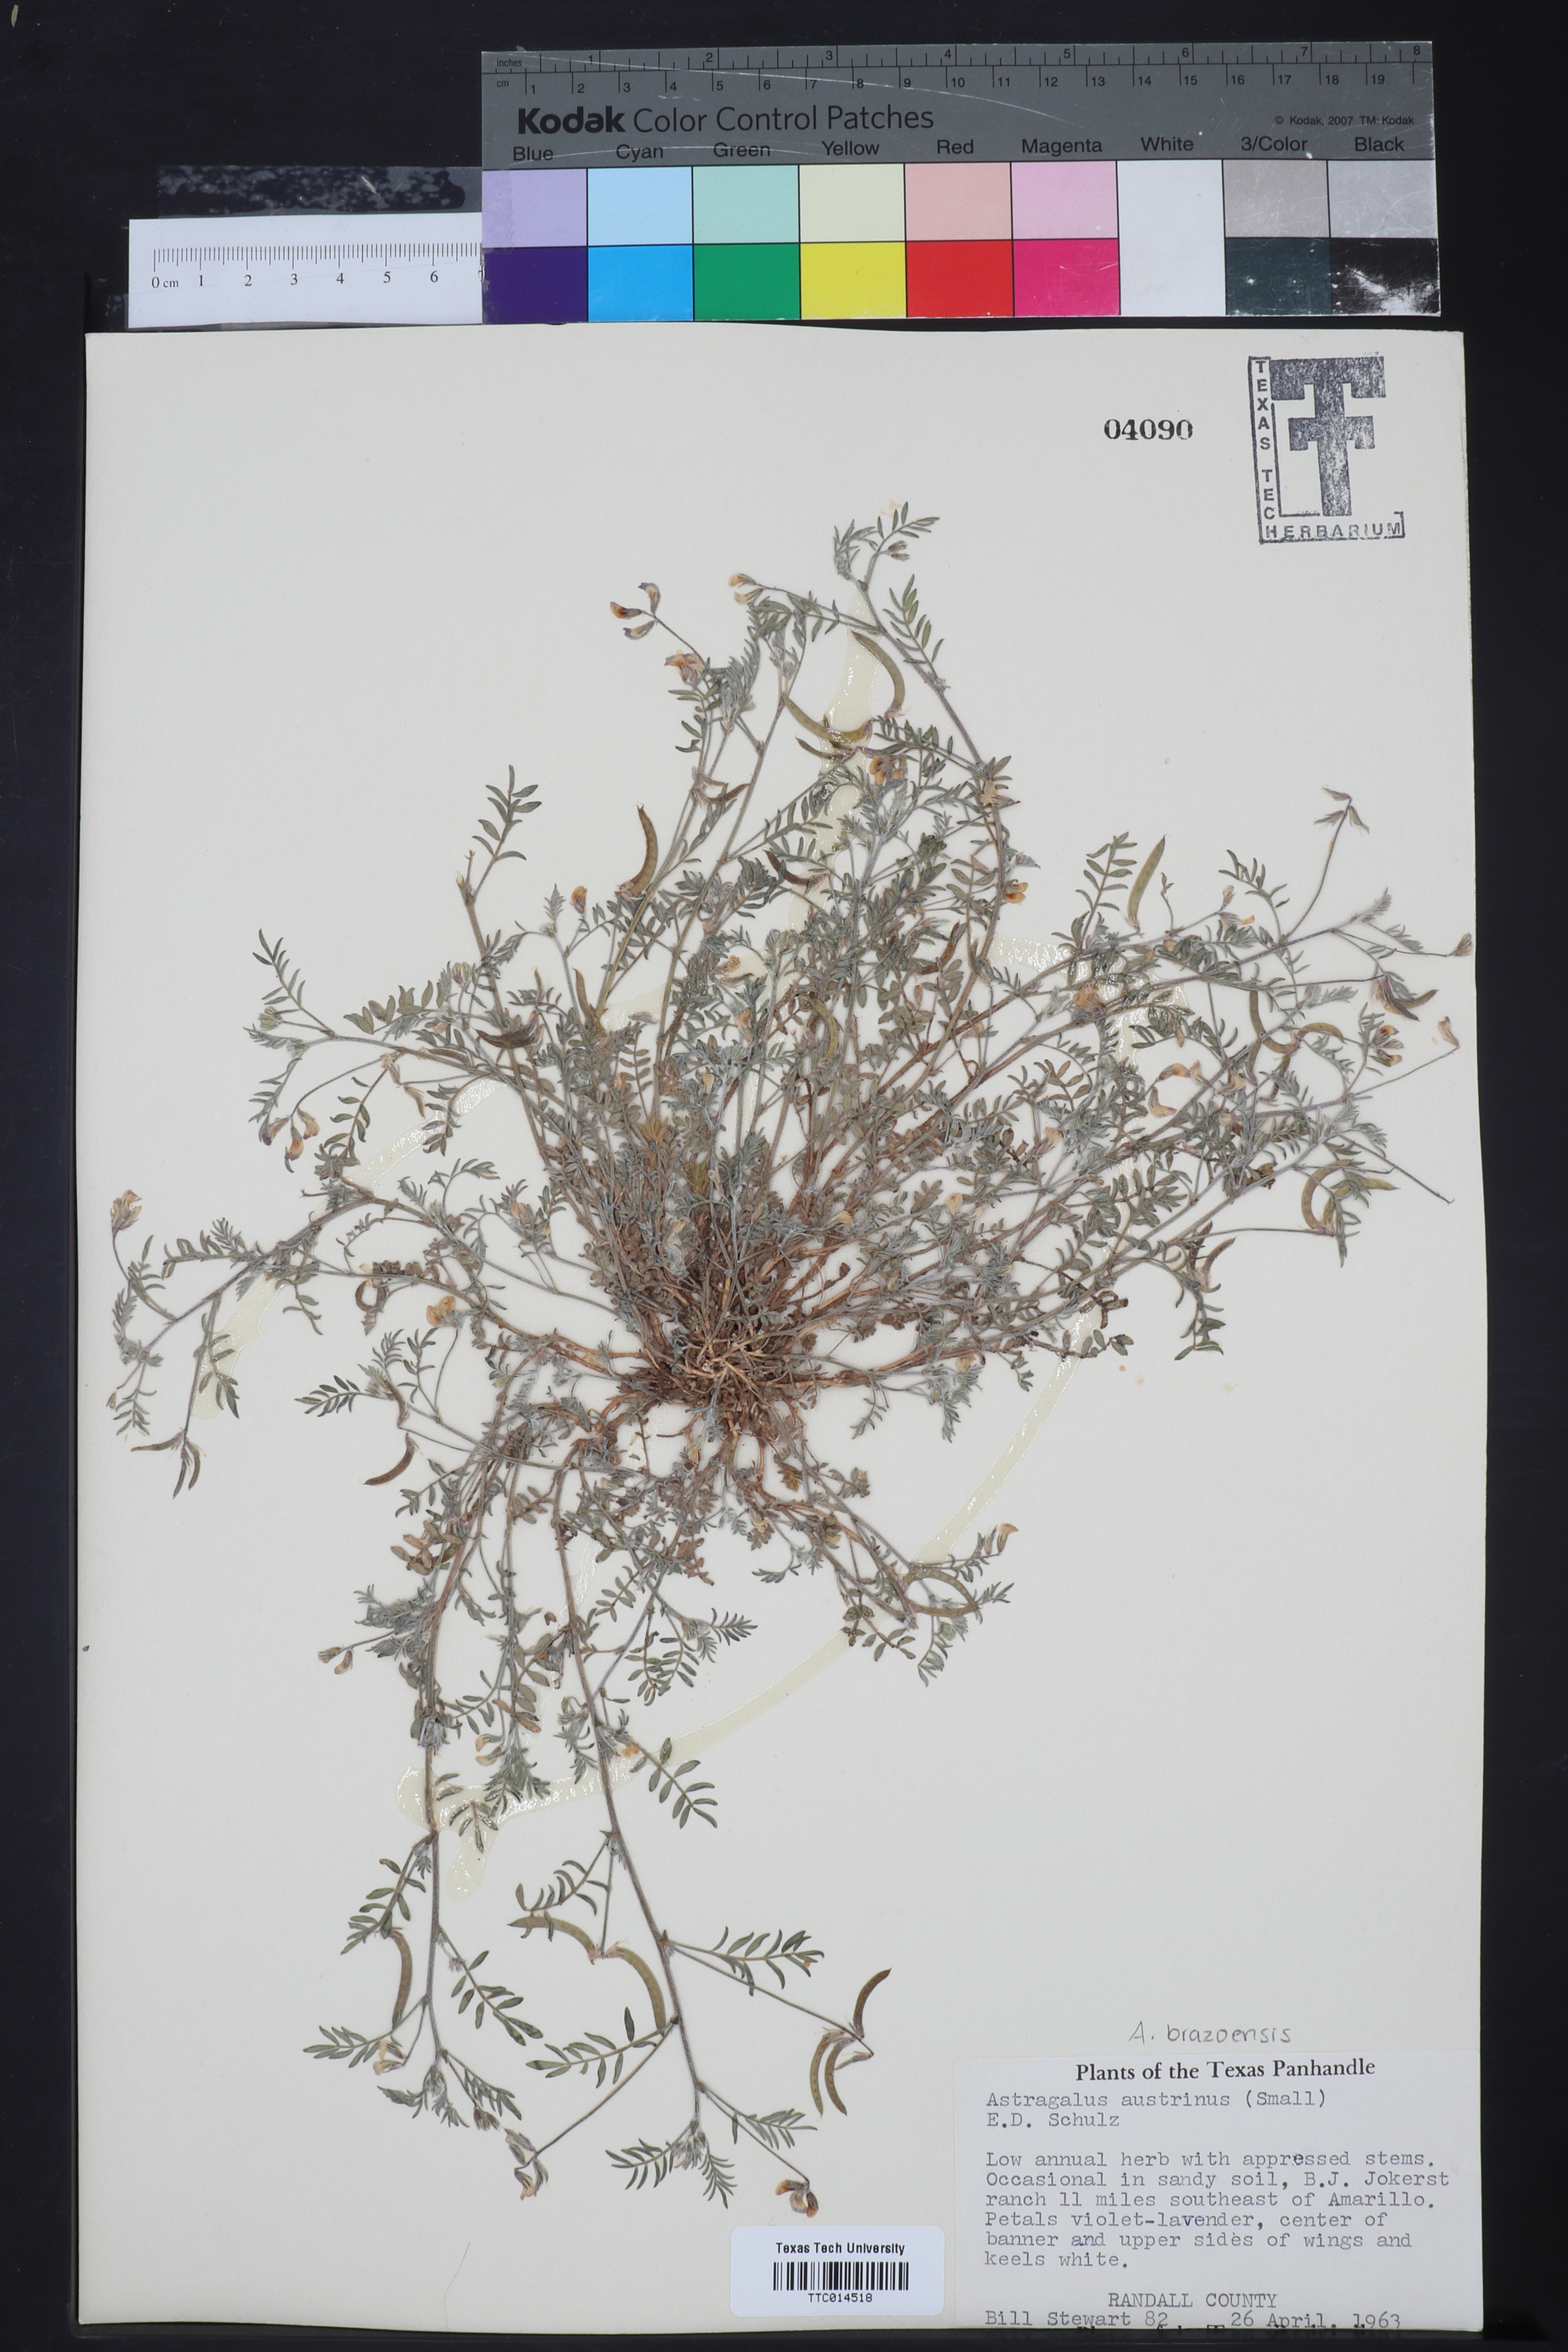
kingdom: Plantae
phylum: Tracheophyta
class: Magnoliopsida
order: Fabales
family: Fabaceae
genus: Astragalus
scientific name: Astragalus nuttallianus
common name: Smallflowered milkvetch
